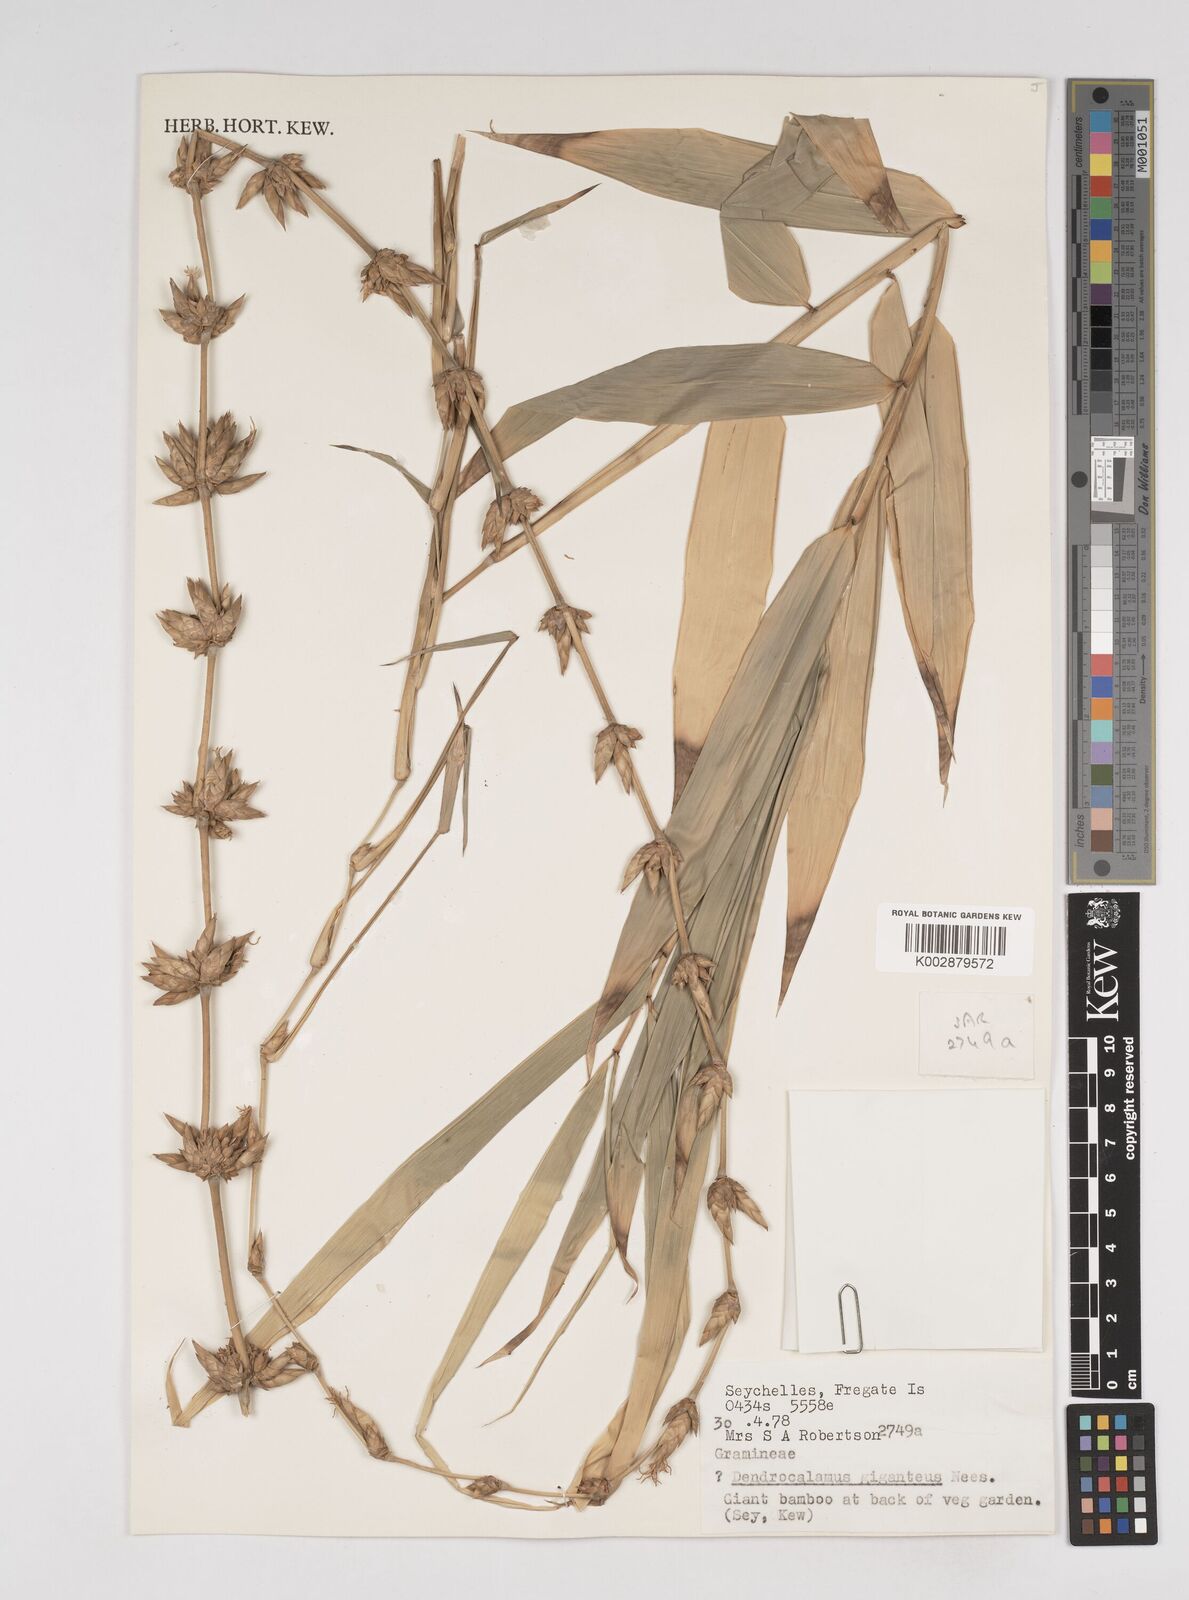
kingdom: Plantae
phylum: Tracheophyta
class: Liliopsida
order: Poales
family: Poaceae
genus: Dendrocalamus
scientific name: Dendrocalamus asper
